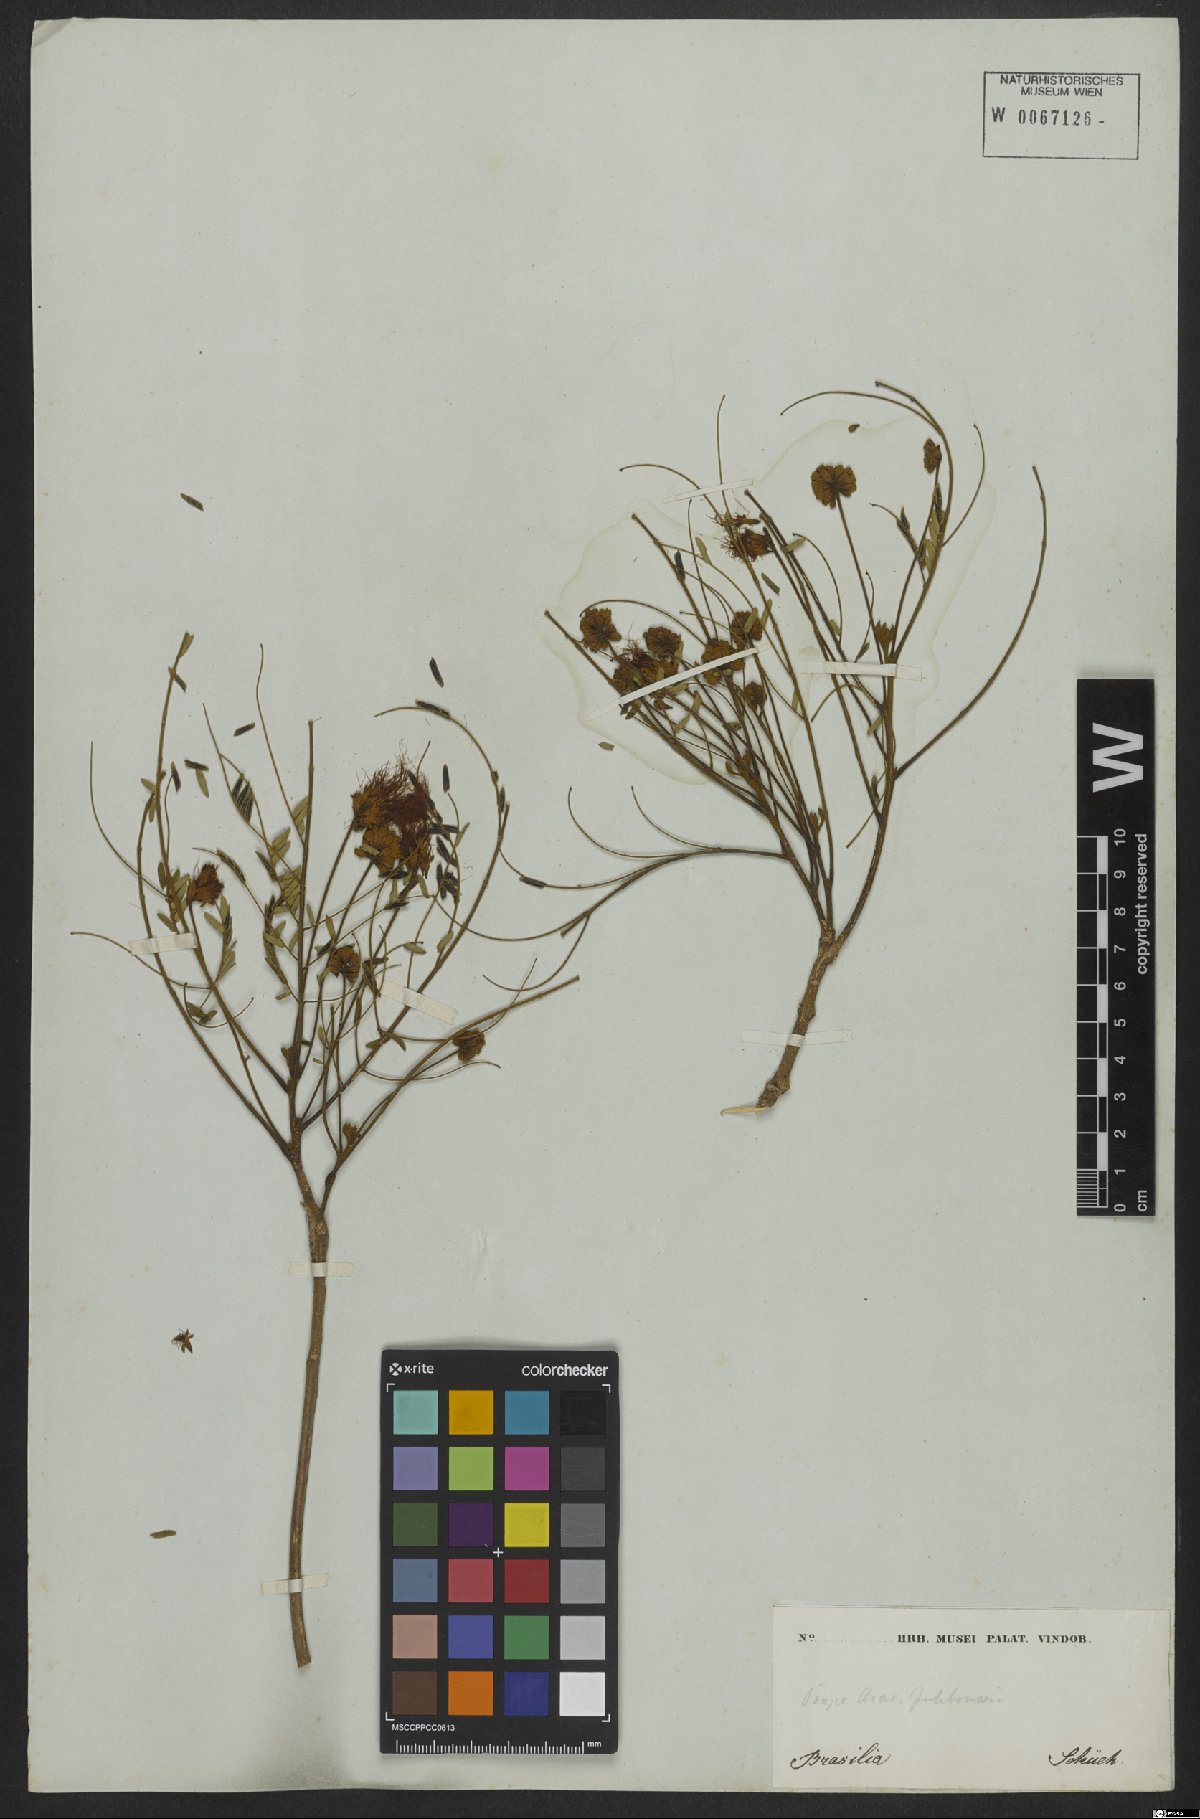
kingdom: Plantae
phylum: Tracheophyta
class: Magnoliopsida
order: Fabales
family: Fabaceae
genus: Jupunba
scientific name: Jupunba langsdorffii
